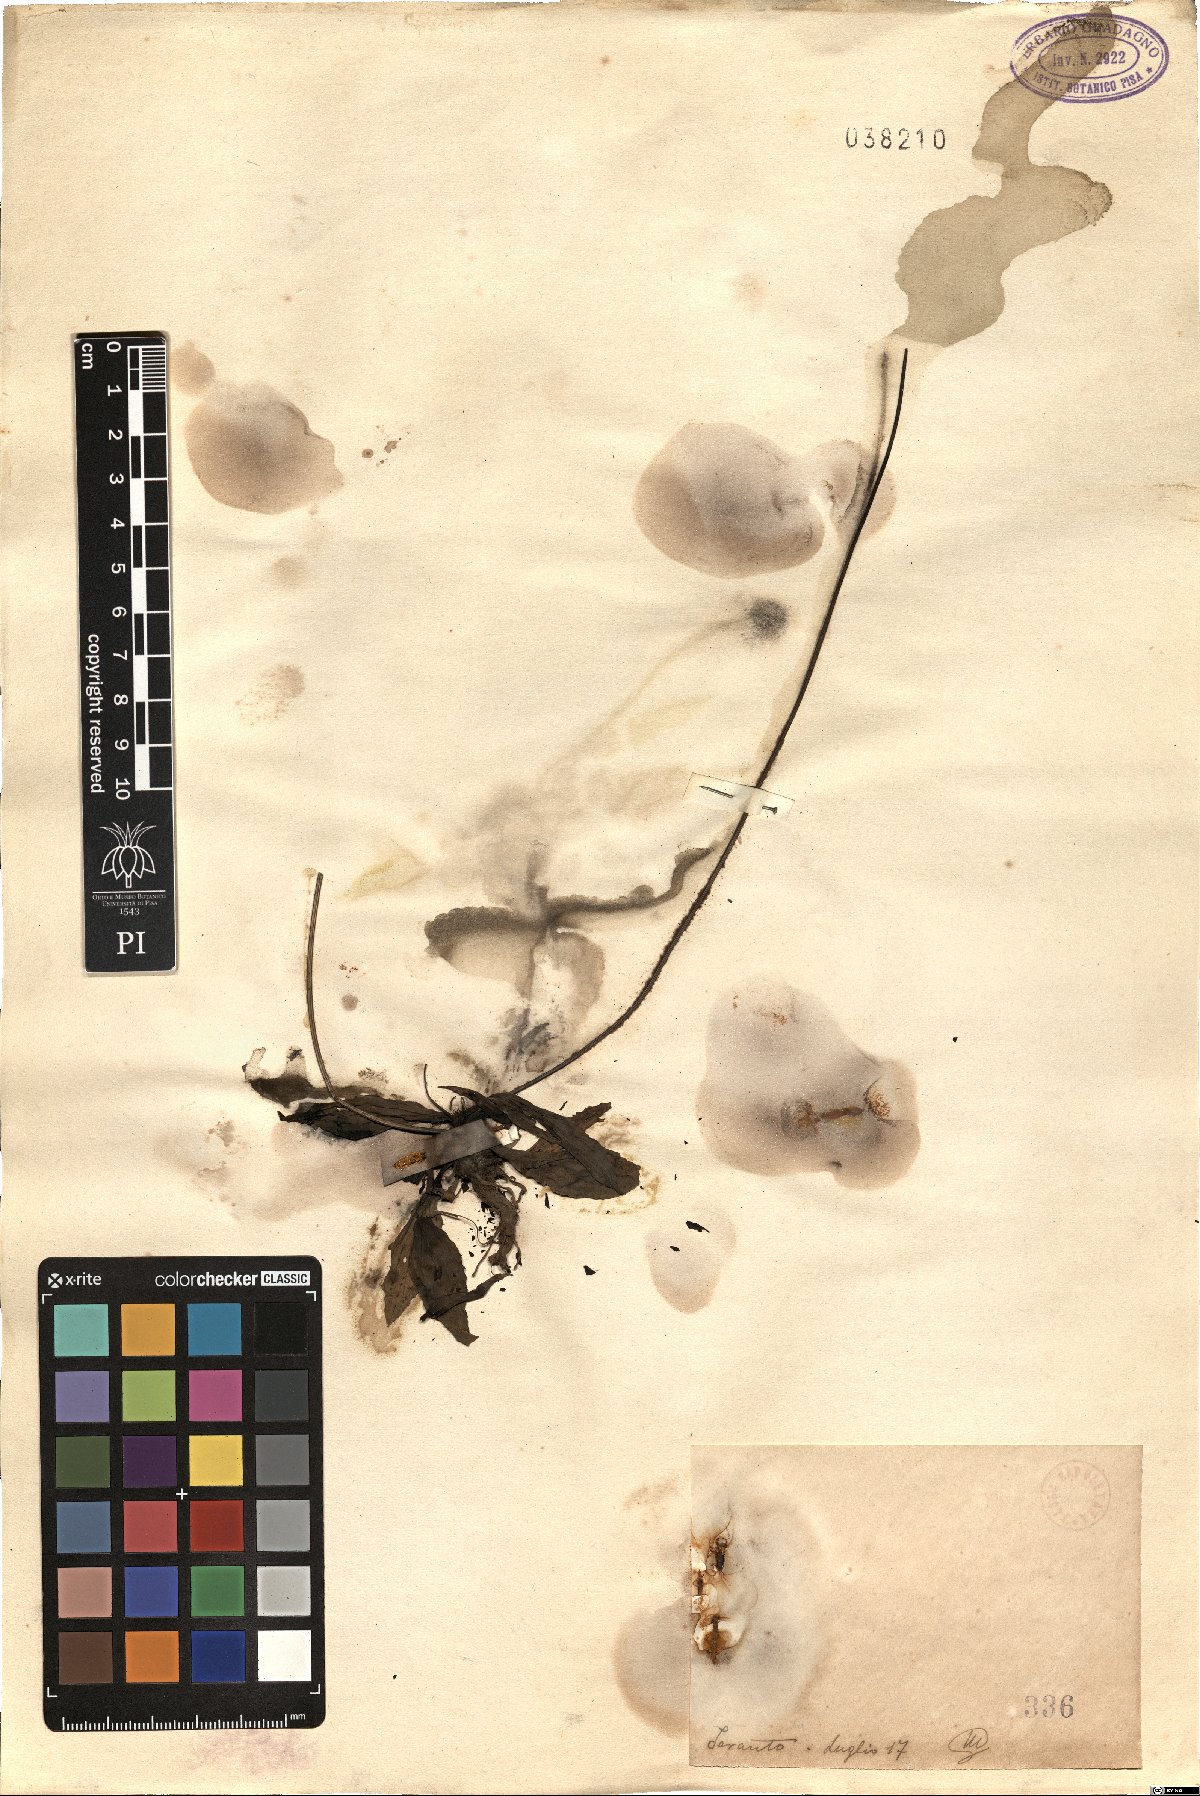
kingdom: Plantae
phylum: Tracheophyta
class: Magnoliopsida
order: Lamiales
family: Plantaginaceae
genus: Plantago
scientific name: Plantago
